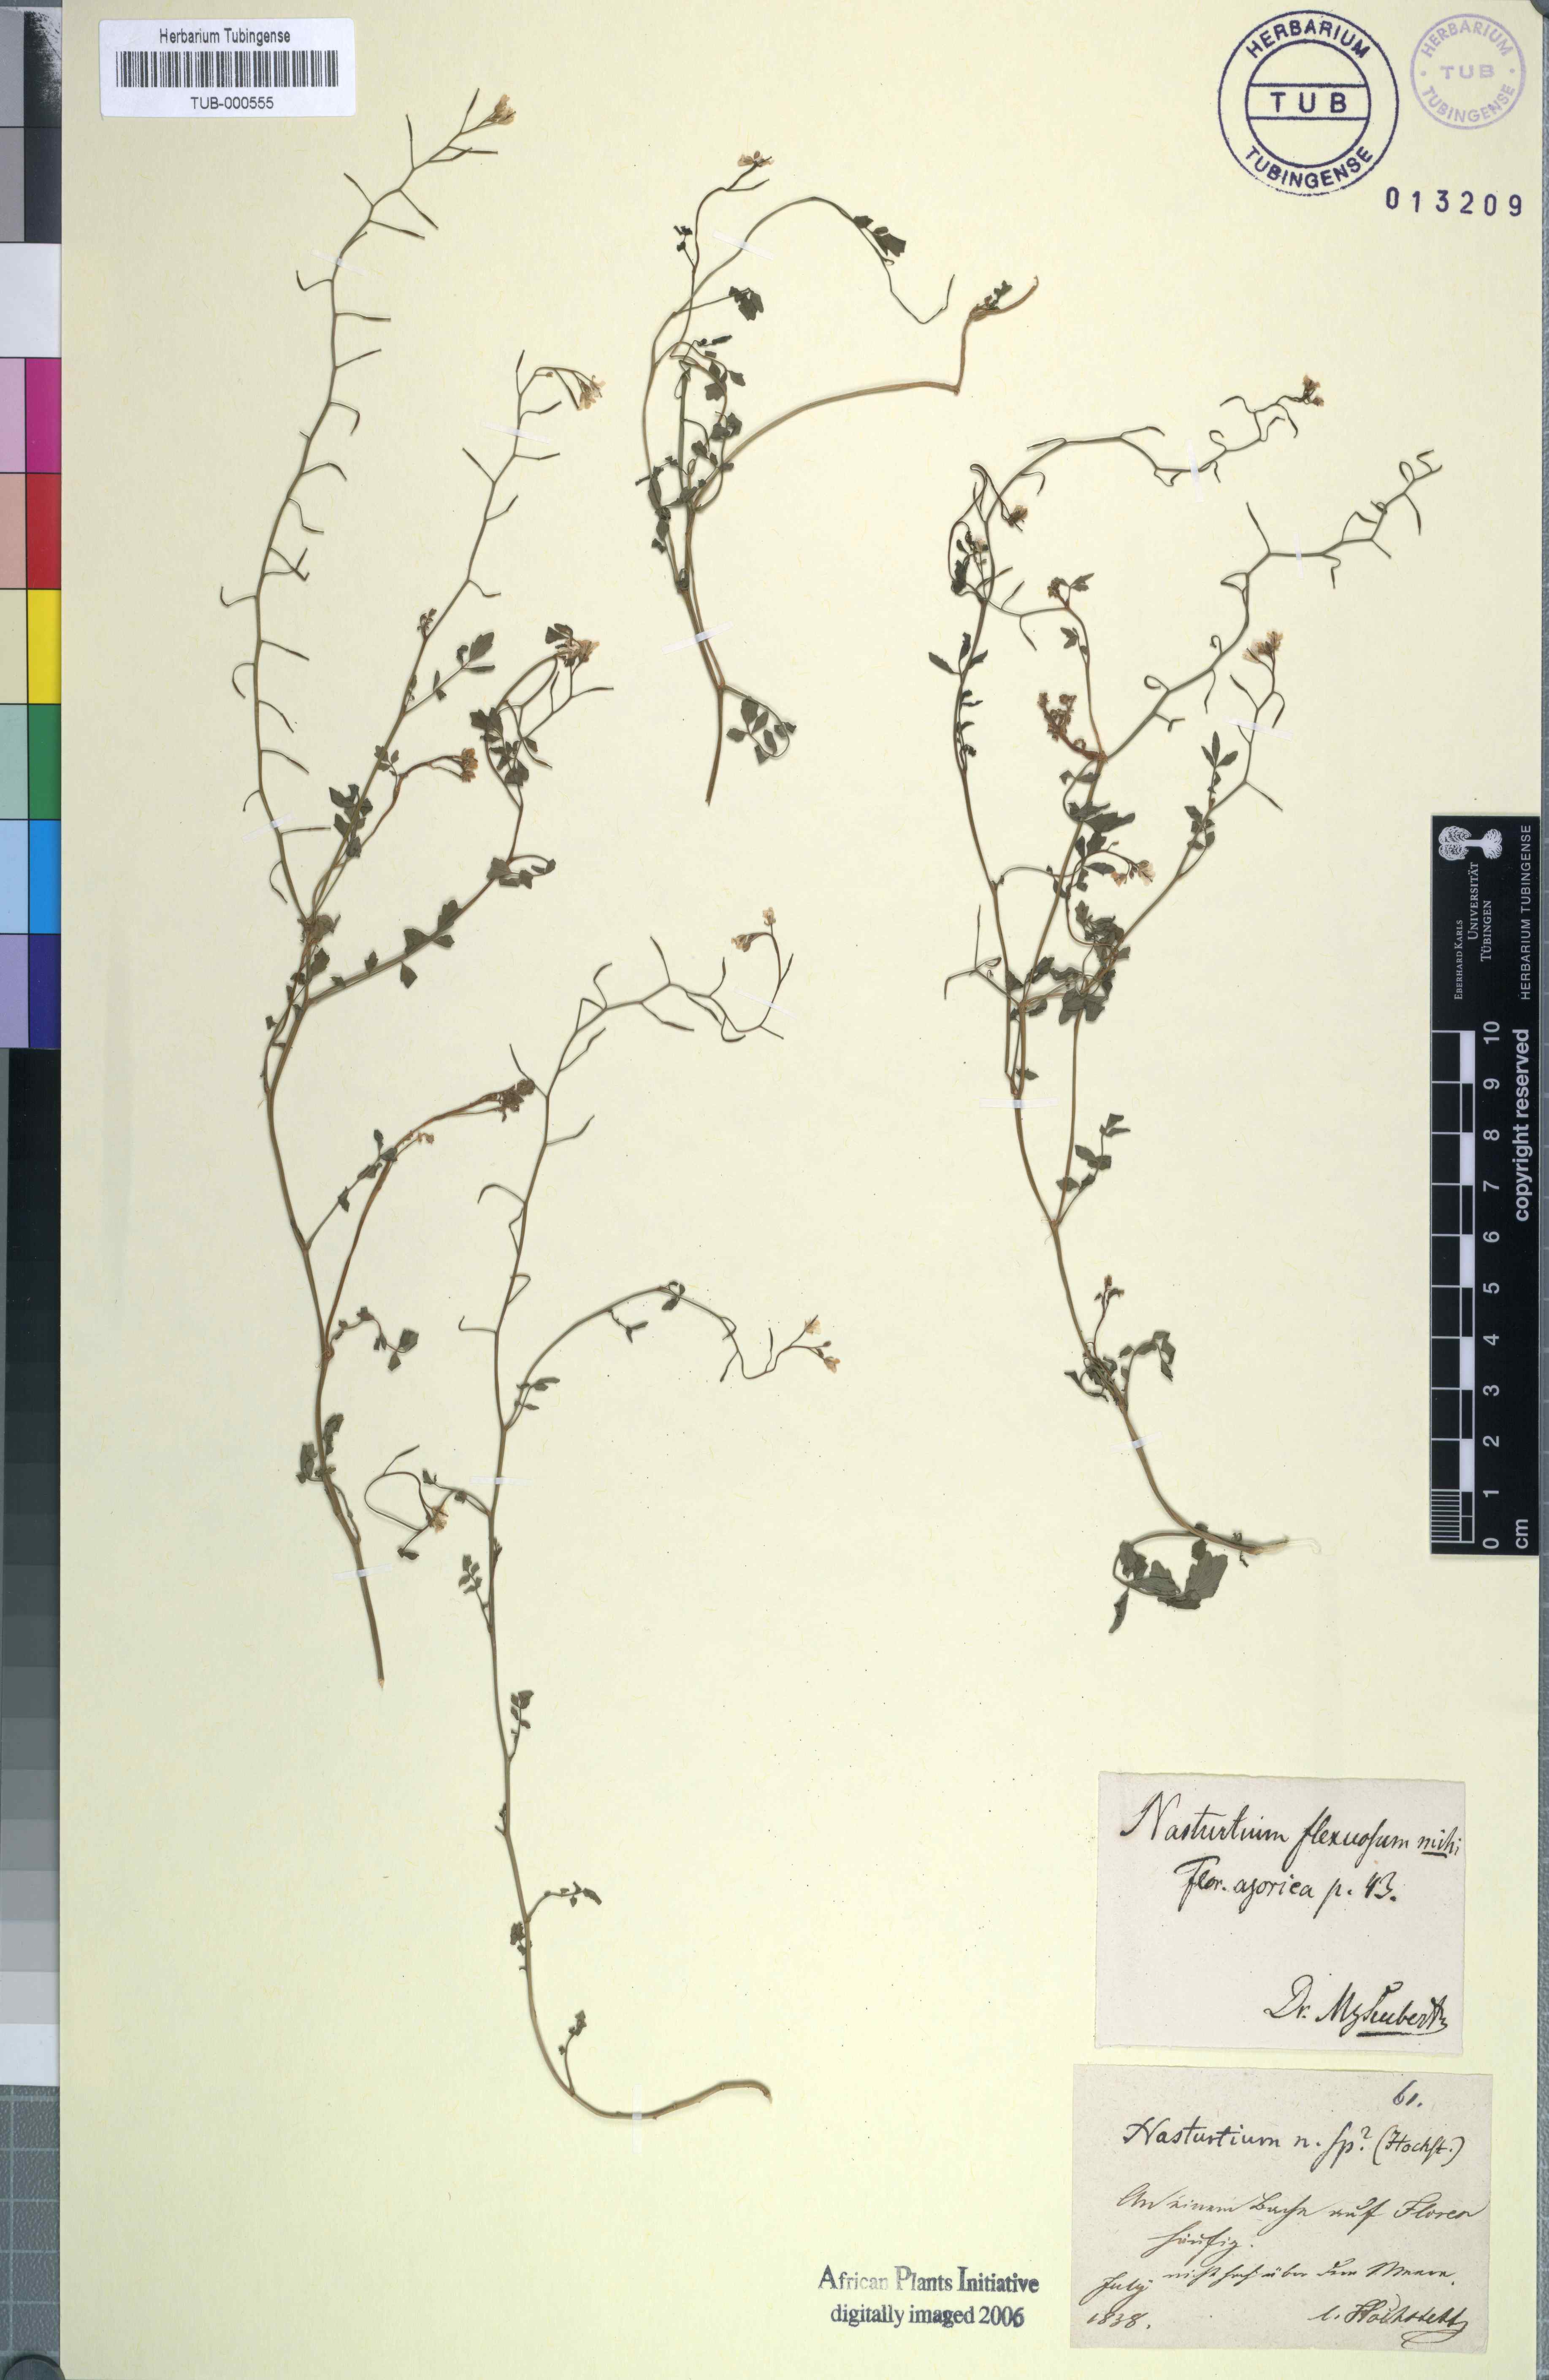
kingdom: Plantae
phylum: Tracheophyta
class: Magnoliopsida
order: Brassicales
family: Brassicaceae
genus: Nasturtium
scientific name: Nasturtium officinale
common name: Watercress
